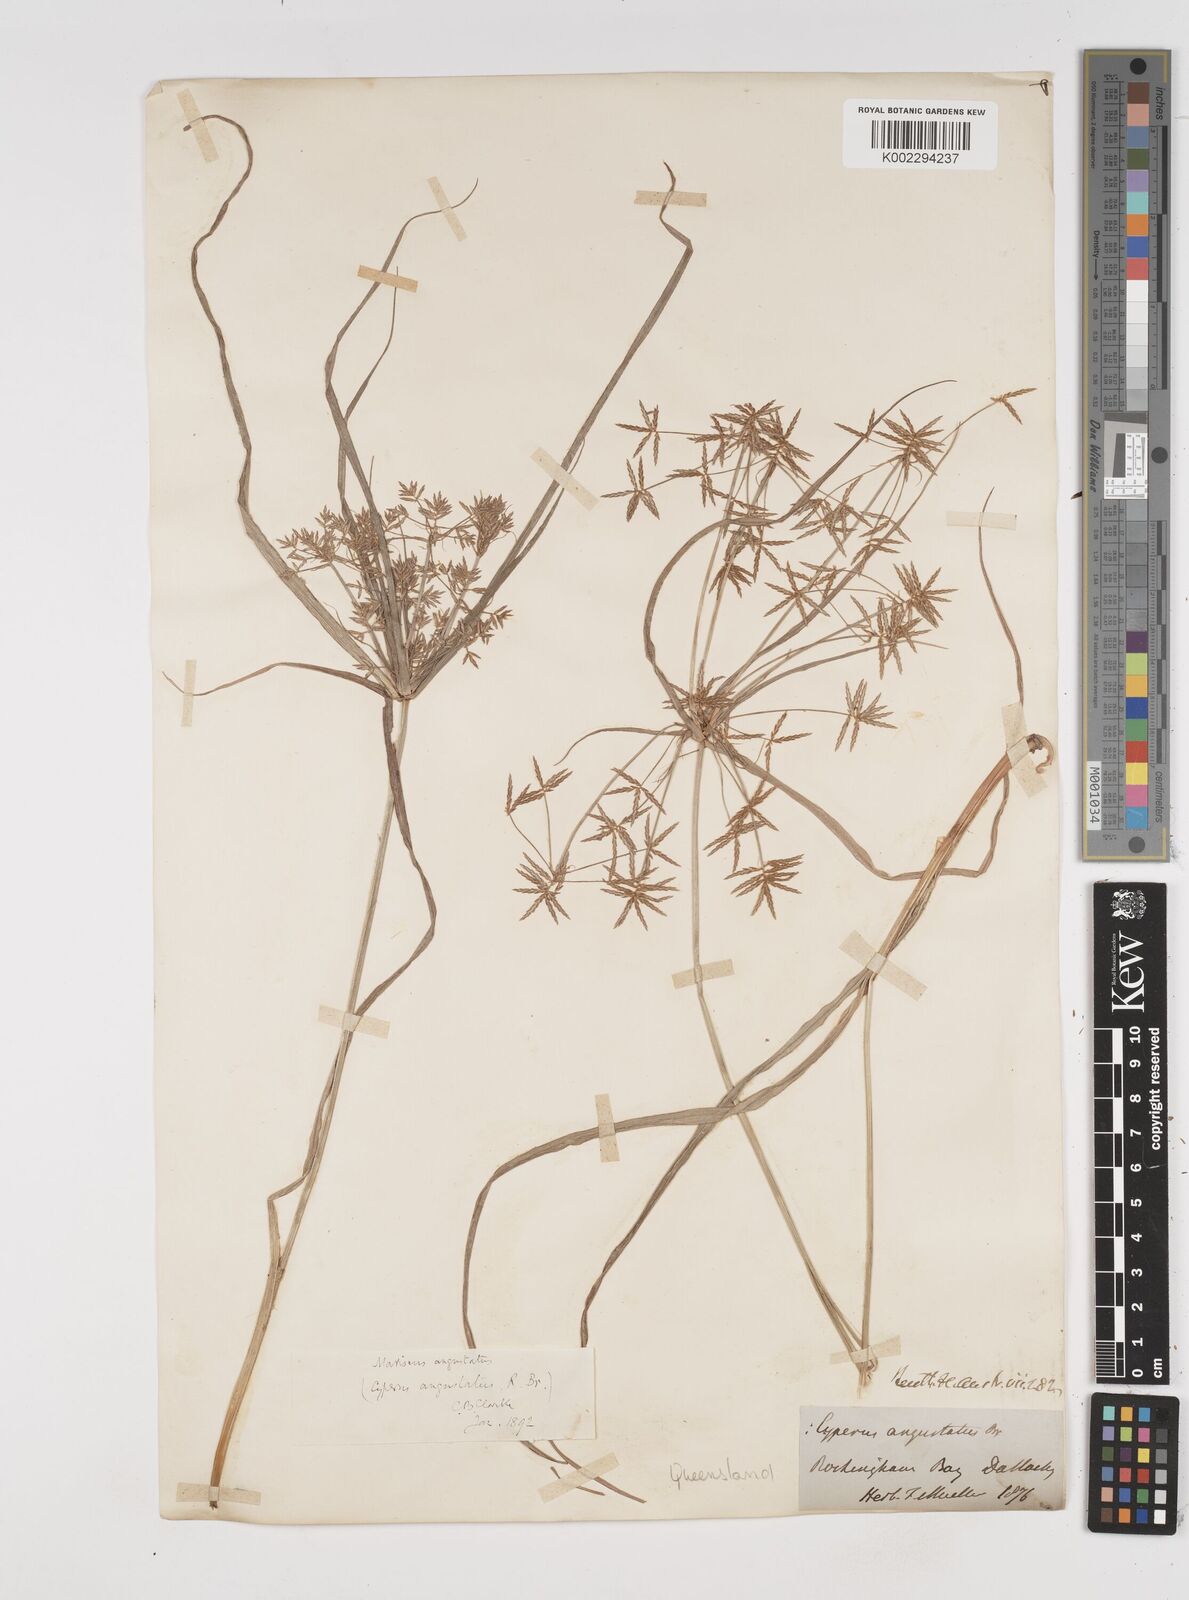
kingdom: Plantae
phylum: Tracheophyta
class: Liliopsida
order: Poales
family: Cyperaceae
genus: Cyperus
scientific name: Cyperus angustatus
